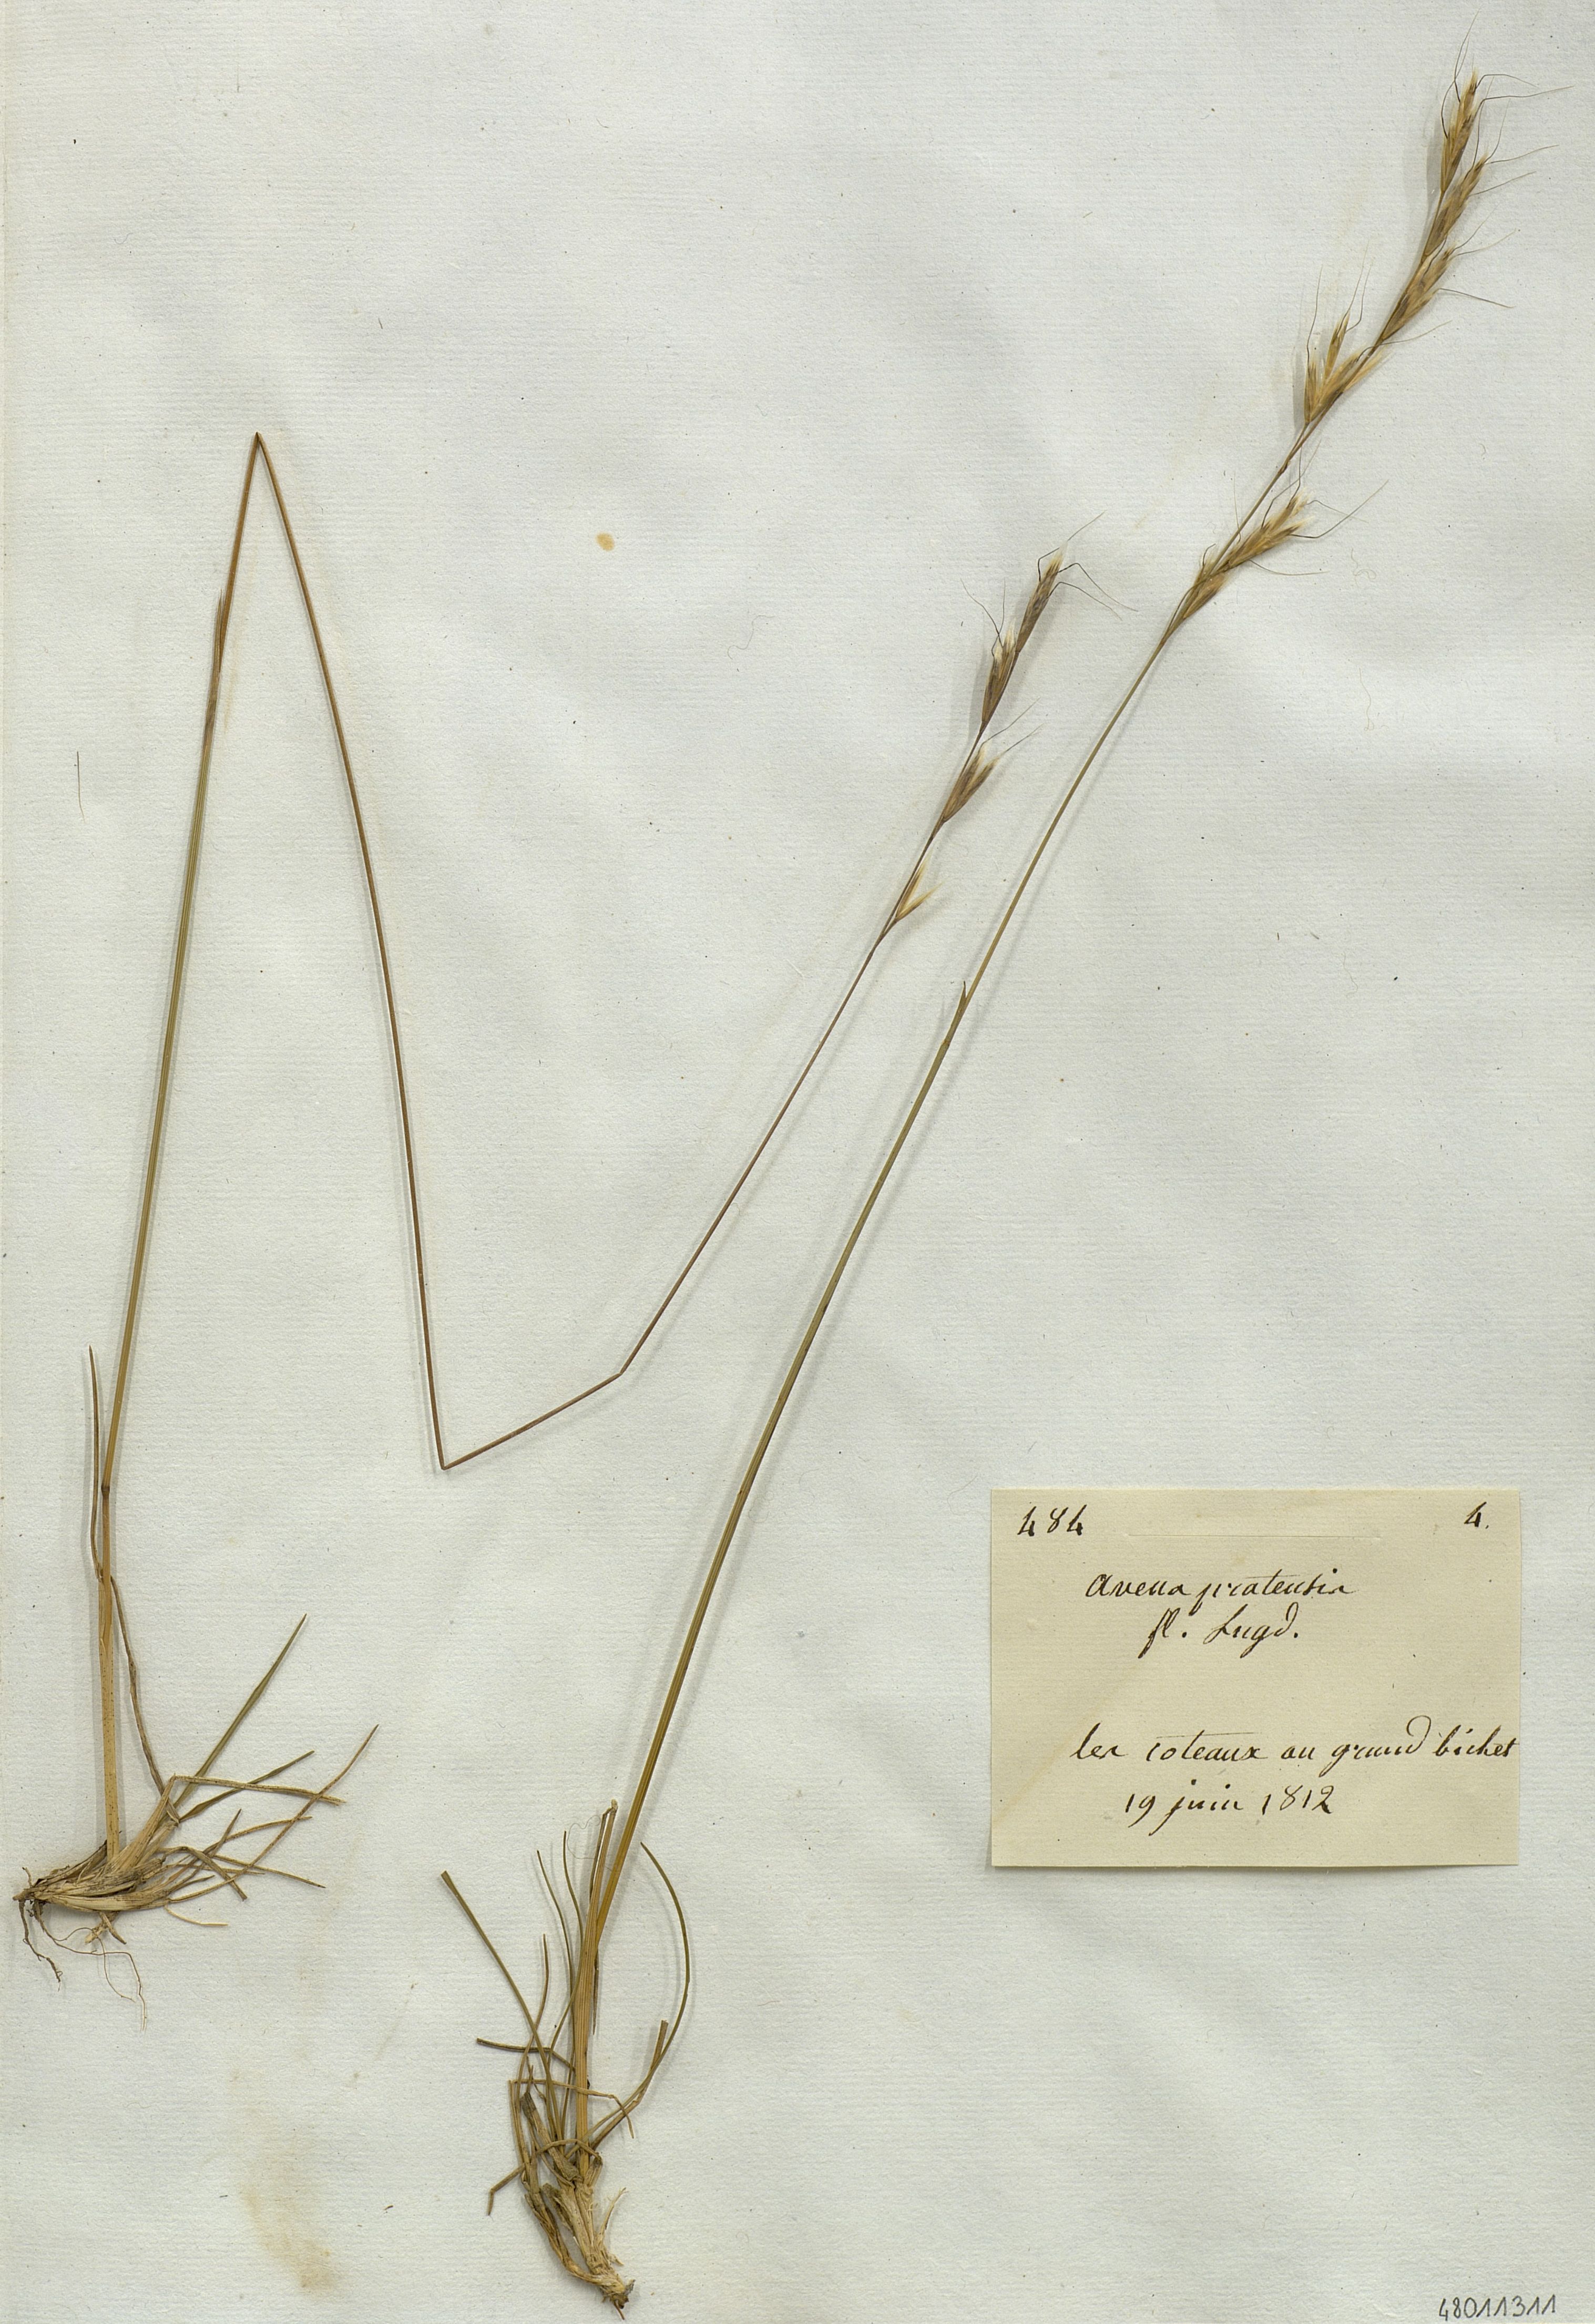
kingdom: Plantae
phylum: Tracheophyta
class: Liliopsida
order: Poales
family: Poaceae
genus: Helictochloa
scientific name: Helictochloa pratensis
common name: Meadow oat grass
